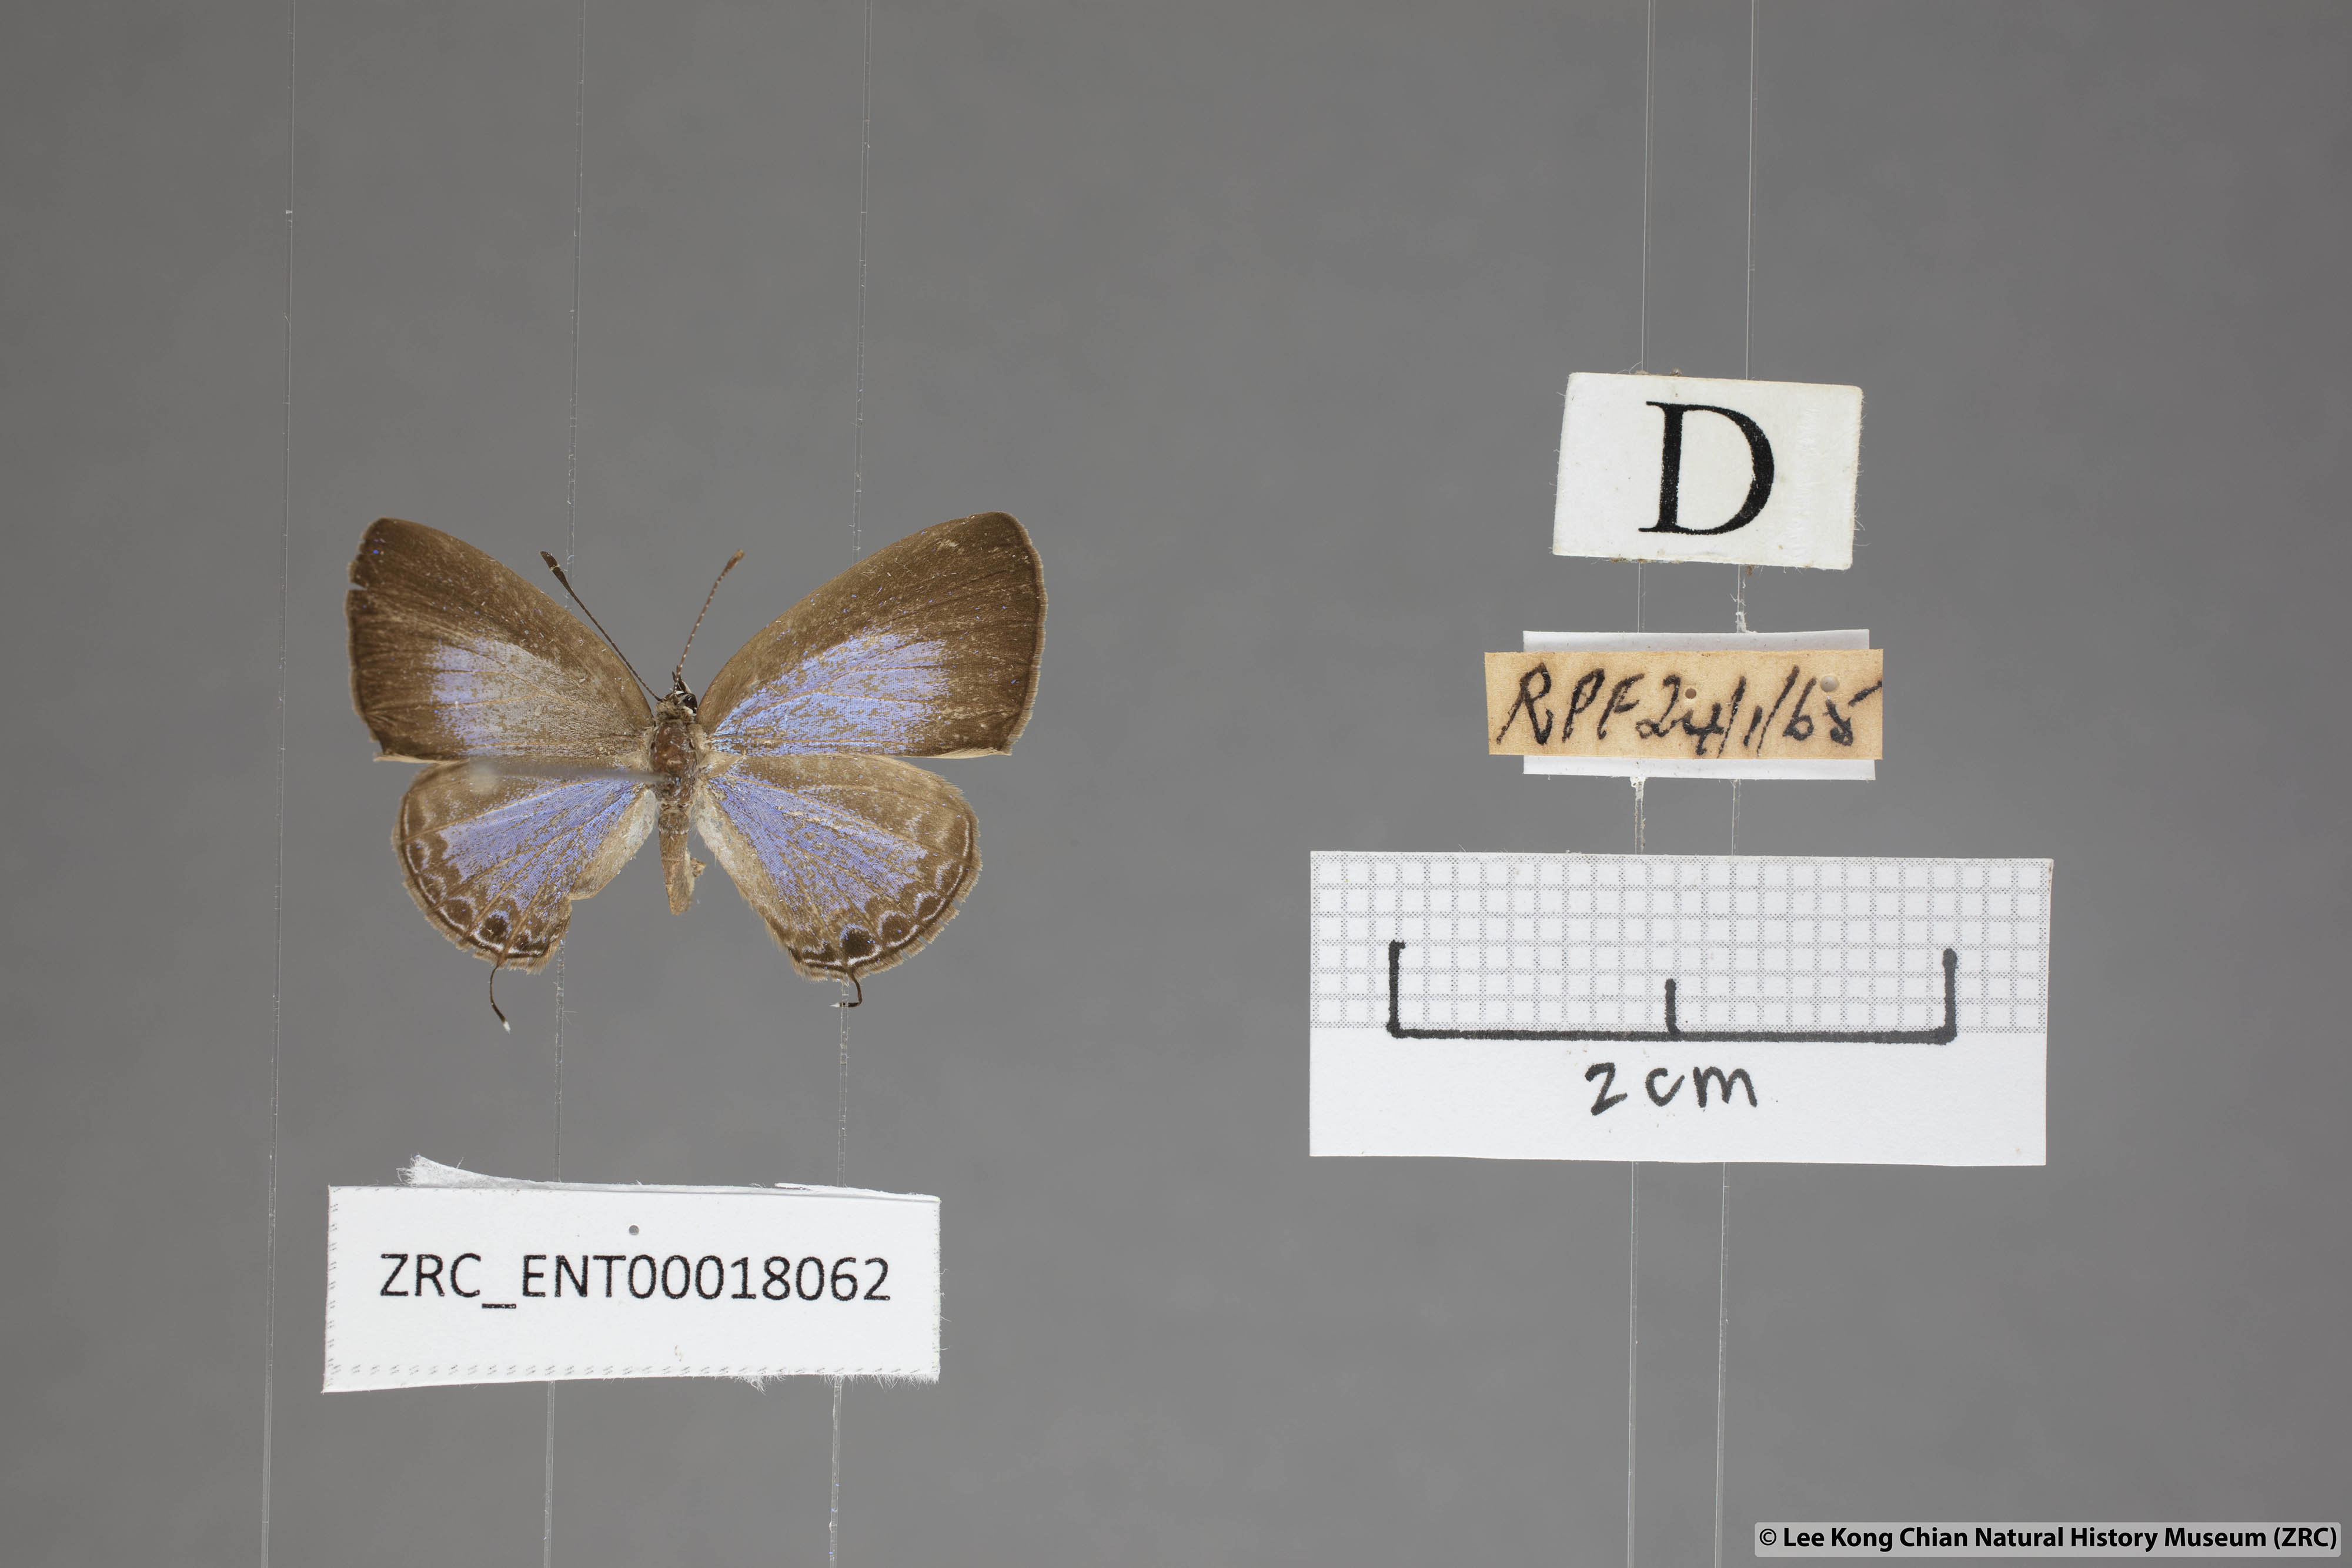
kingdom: Animalia
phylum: Arthropoda
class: Insecta
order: Lepidoptera
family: Lycaenidae
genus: Jamides
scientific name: Jamides bochus
